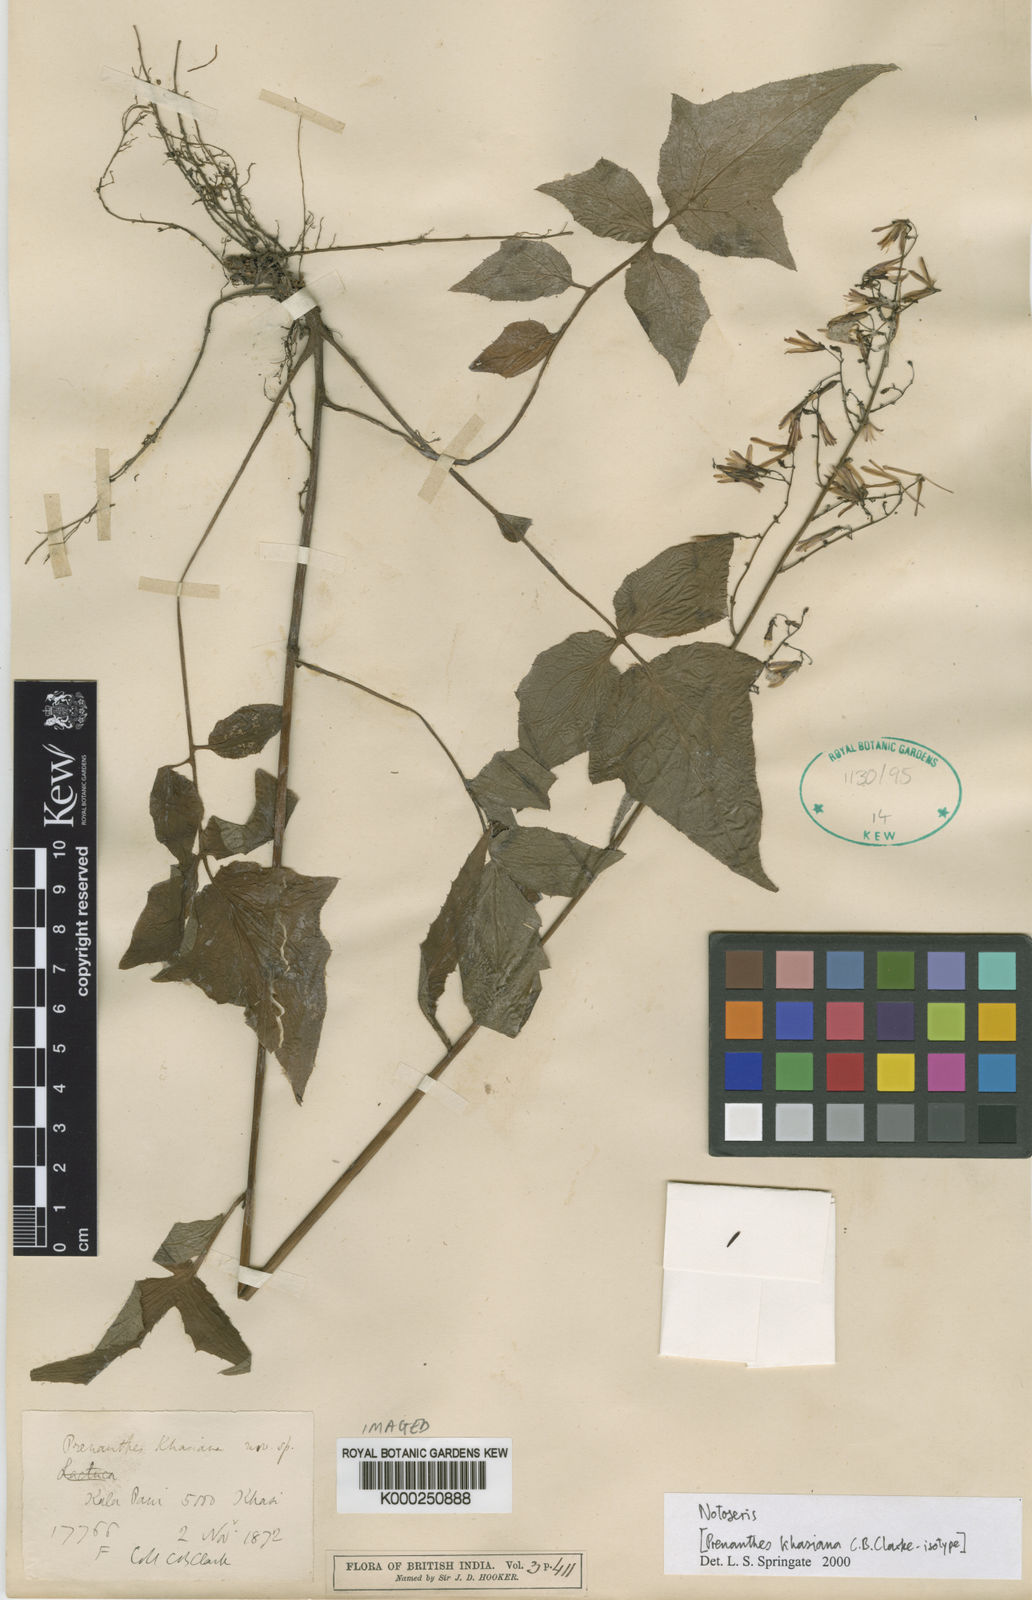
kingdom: Plantae
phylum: Tracheophyta
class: Magnoliopsida
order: Asterales
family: Asteraceae
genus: Notoseris
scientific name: Notoseris khasiana
